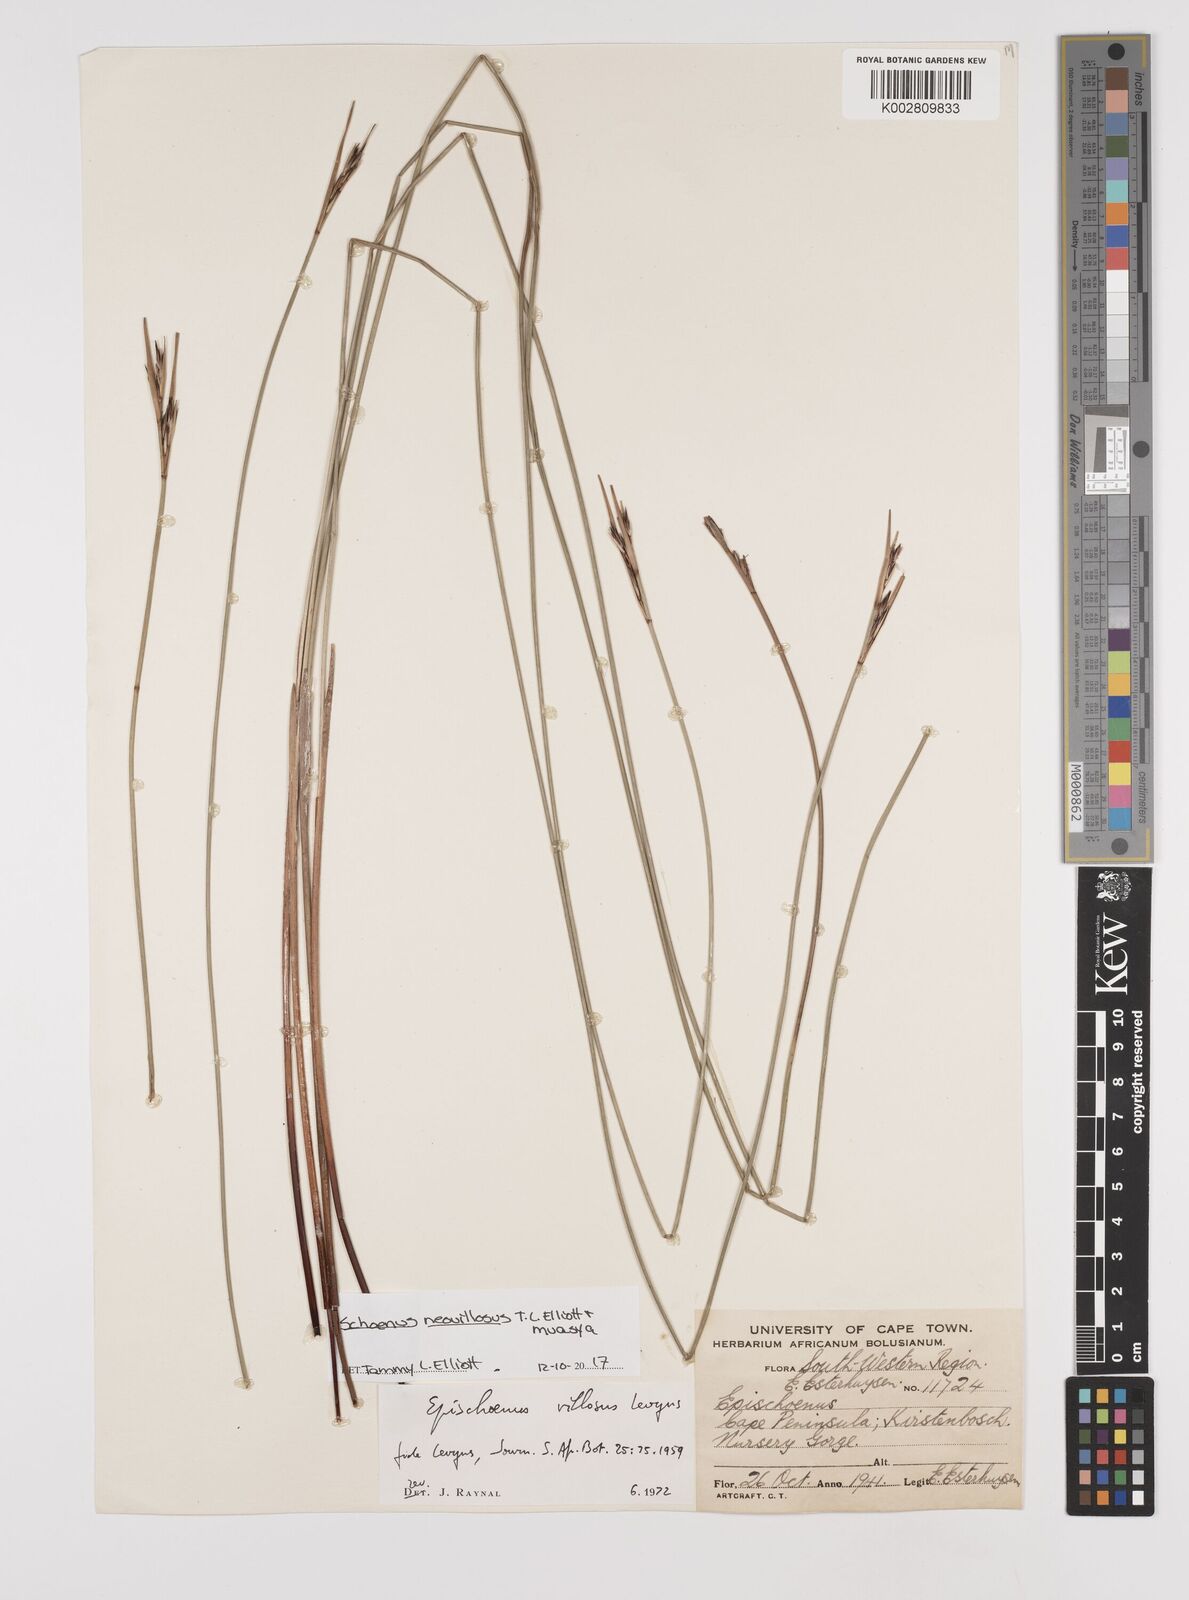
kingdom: Plantae
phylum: Tracheophyta
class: Liliopsida
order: Poales
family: Cyperaceae
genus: Schoenus
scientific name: Schoenus villosus
